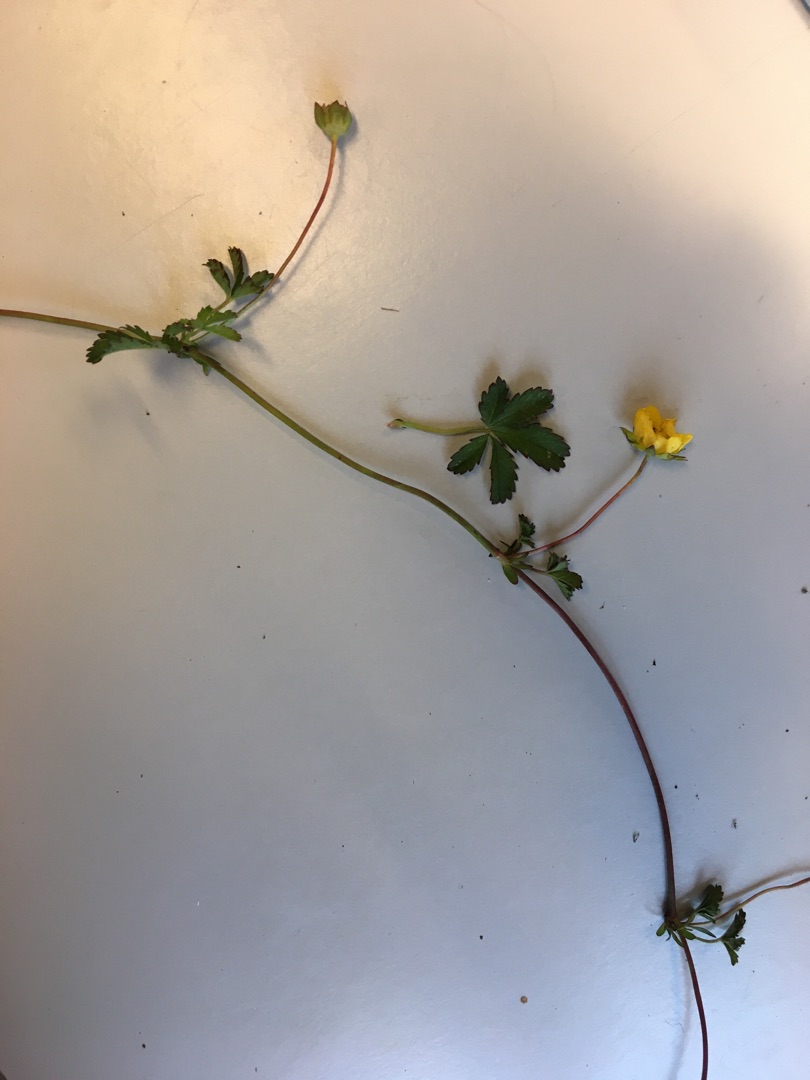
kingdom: Plantae
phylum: Tracheophyta
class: Magnoliopsida
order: Rosales
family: Rosaceae
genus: Potentilla
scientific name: Potentilla reptans
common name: Krybende potentil
